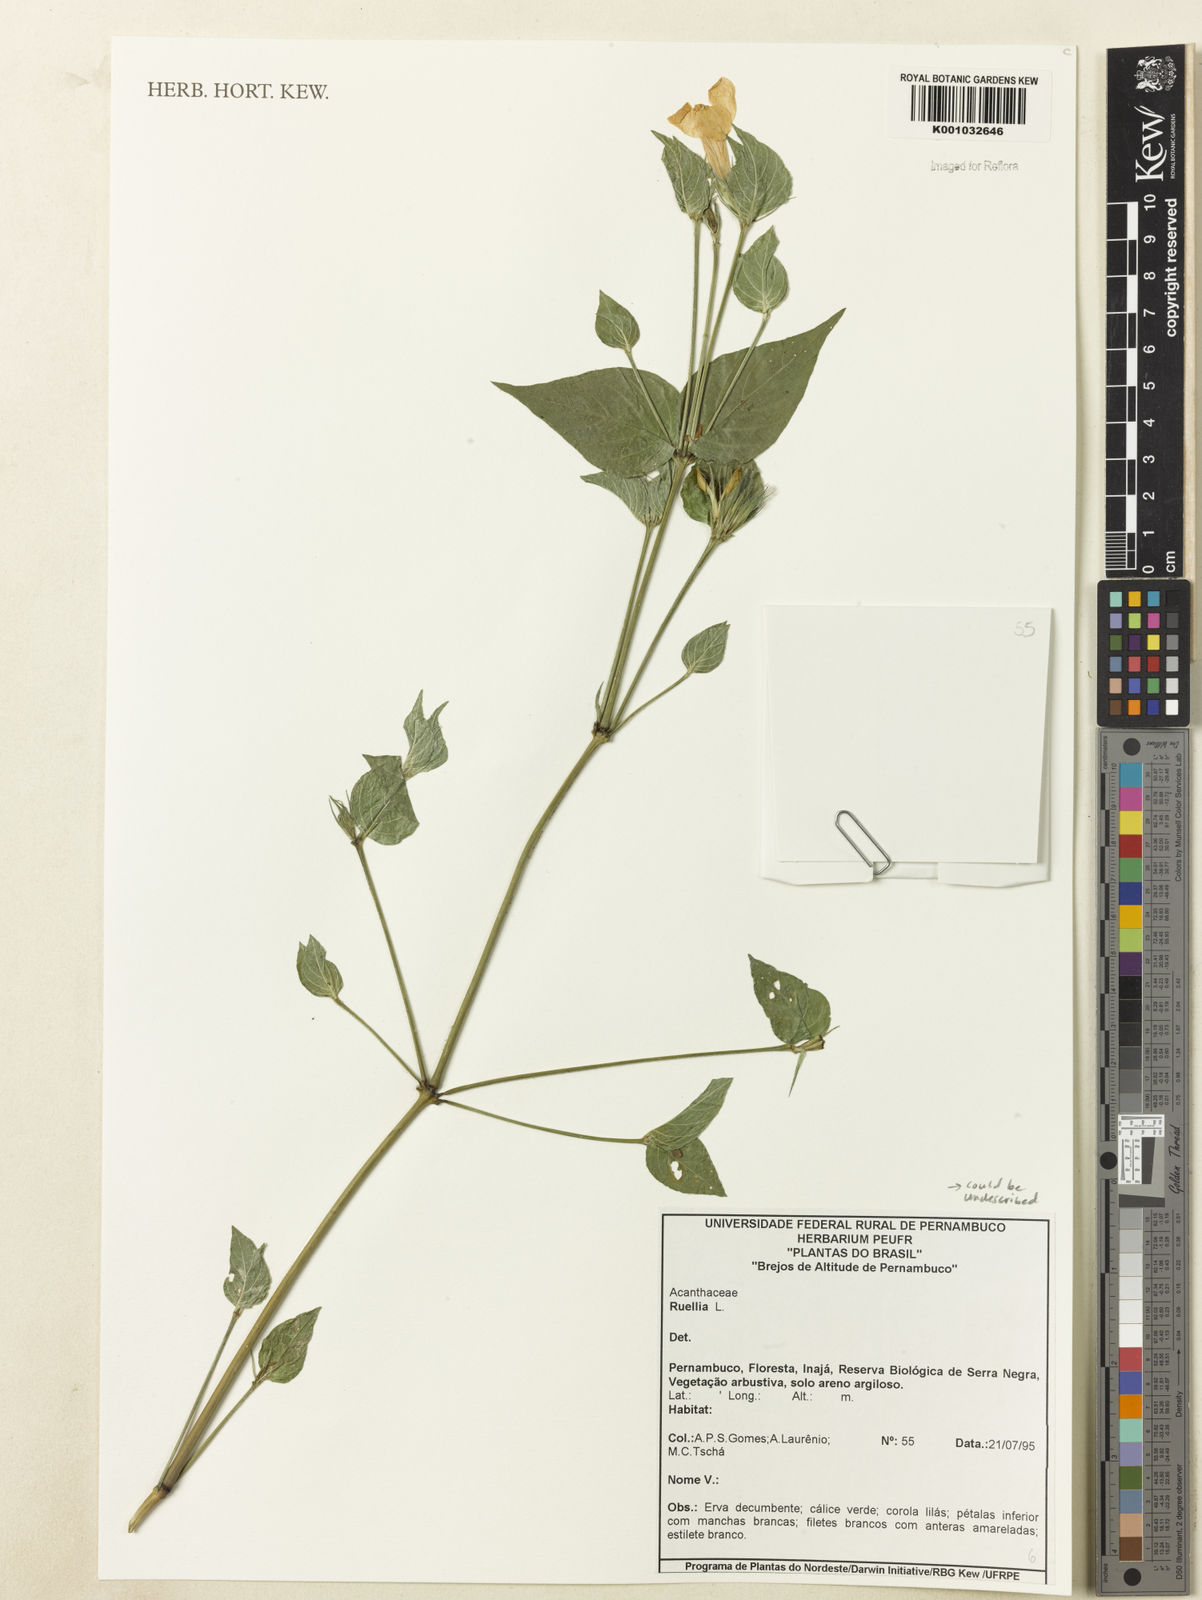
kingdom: Plantae
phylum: Tracheophyta
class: Magnoliopsida
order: Lamiales
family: Acanthaceae
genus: Ruellia
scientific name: Ruellia
